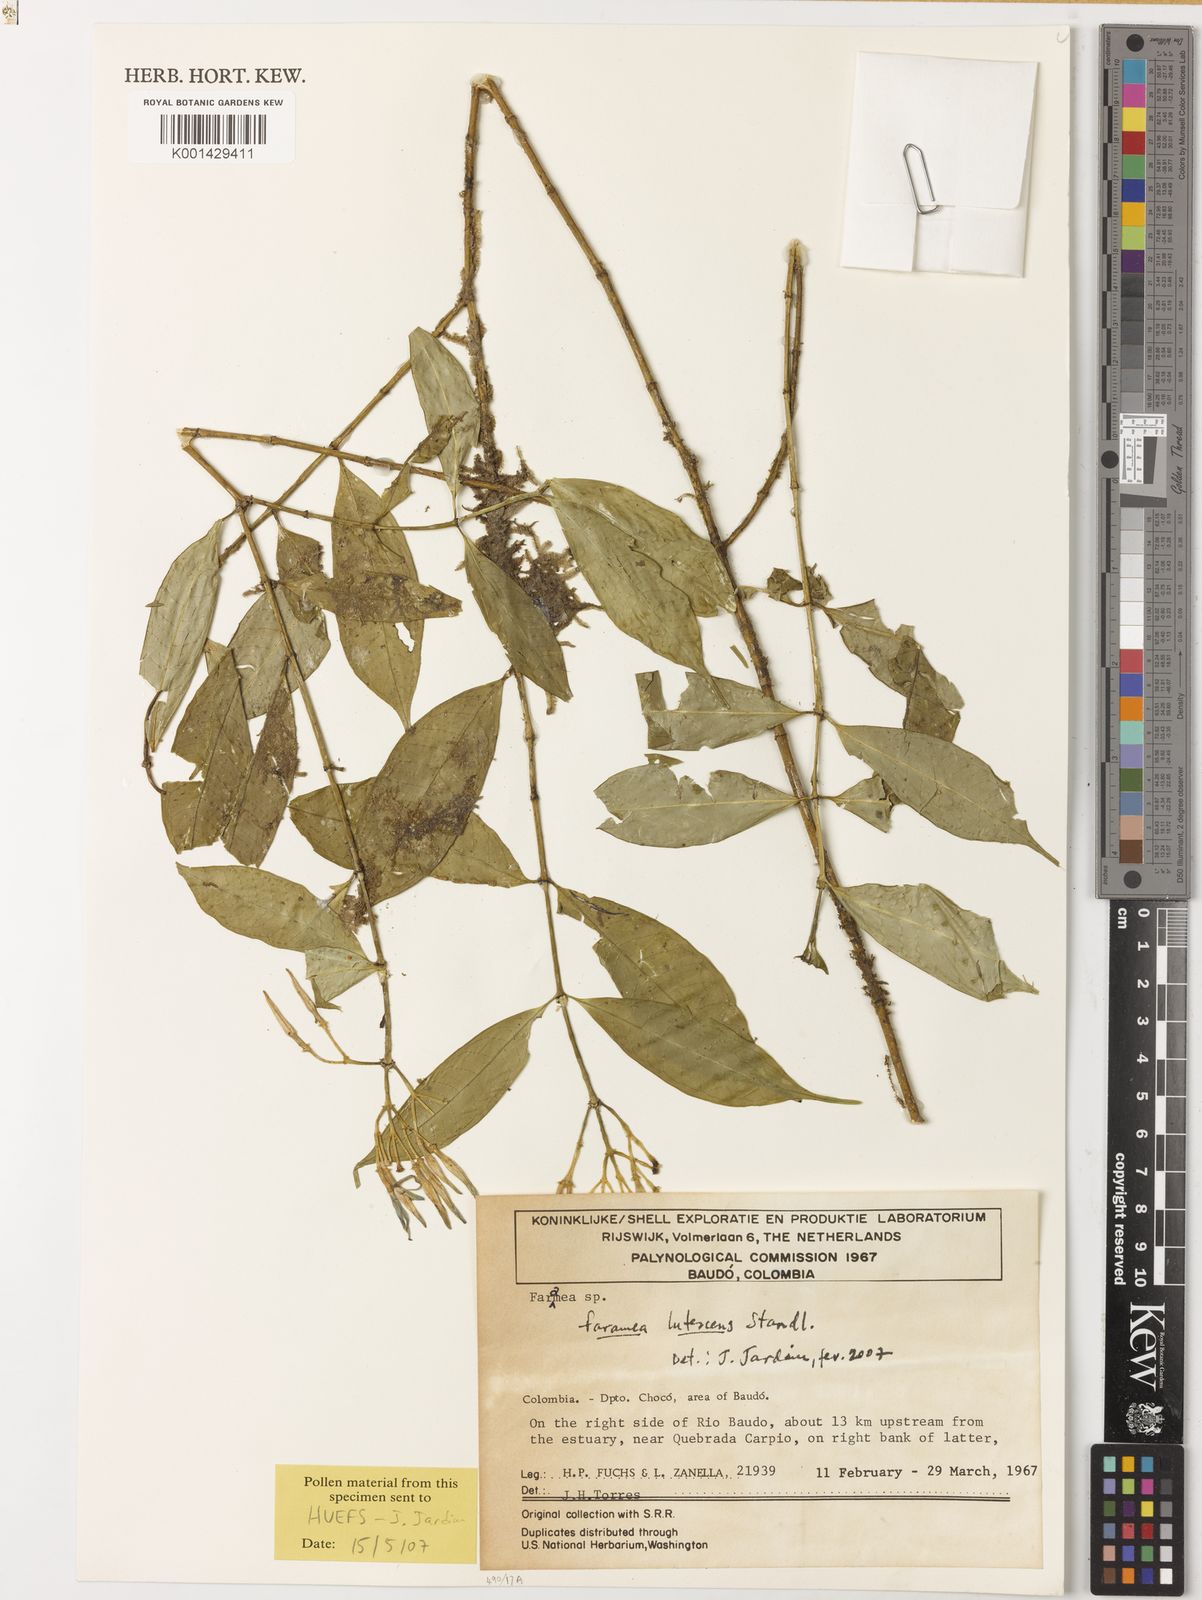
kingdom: Plantae
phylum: Tracheophyta
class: Magnoliopsida
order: Gentianales
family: Rubiaceae
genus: Faramea
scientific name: Faramea lutescens
